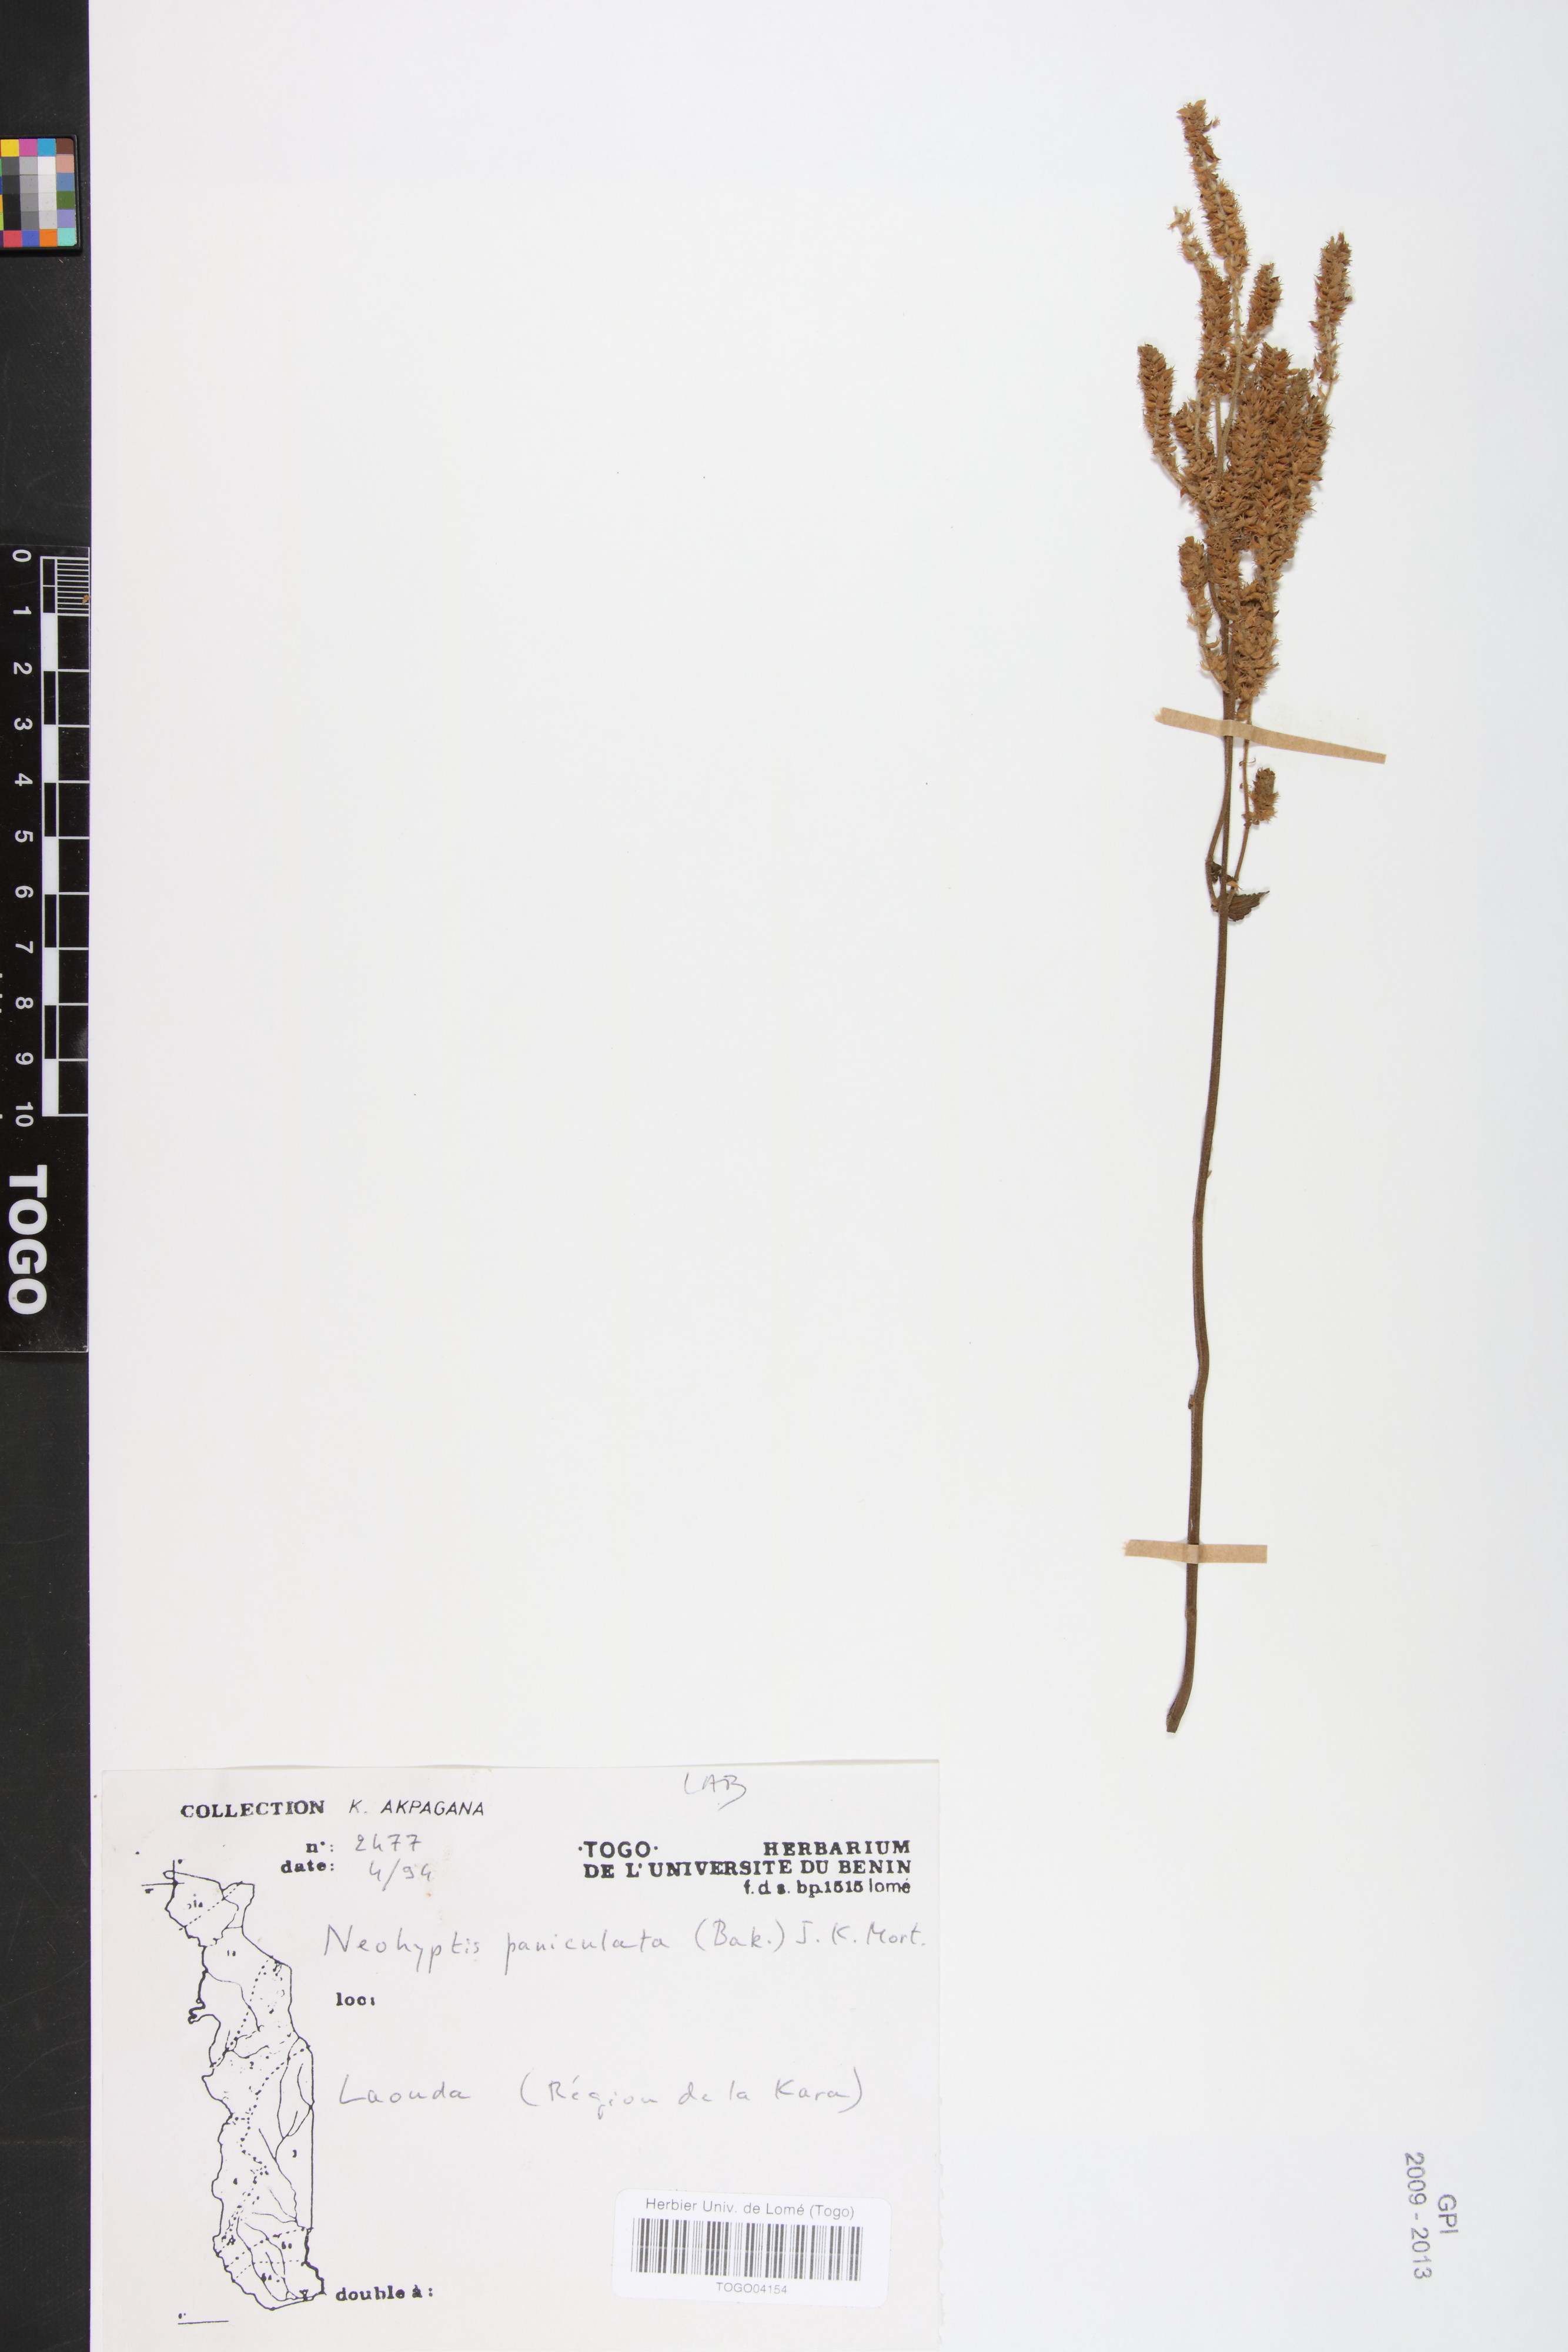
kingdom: Plantae
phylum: Tracheophyta
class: Magnoliopsida
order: Lamiales
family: Lamiaceae
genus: Coleus
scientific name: Coleus guerkei
